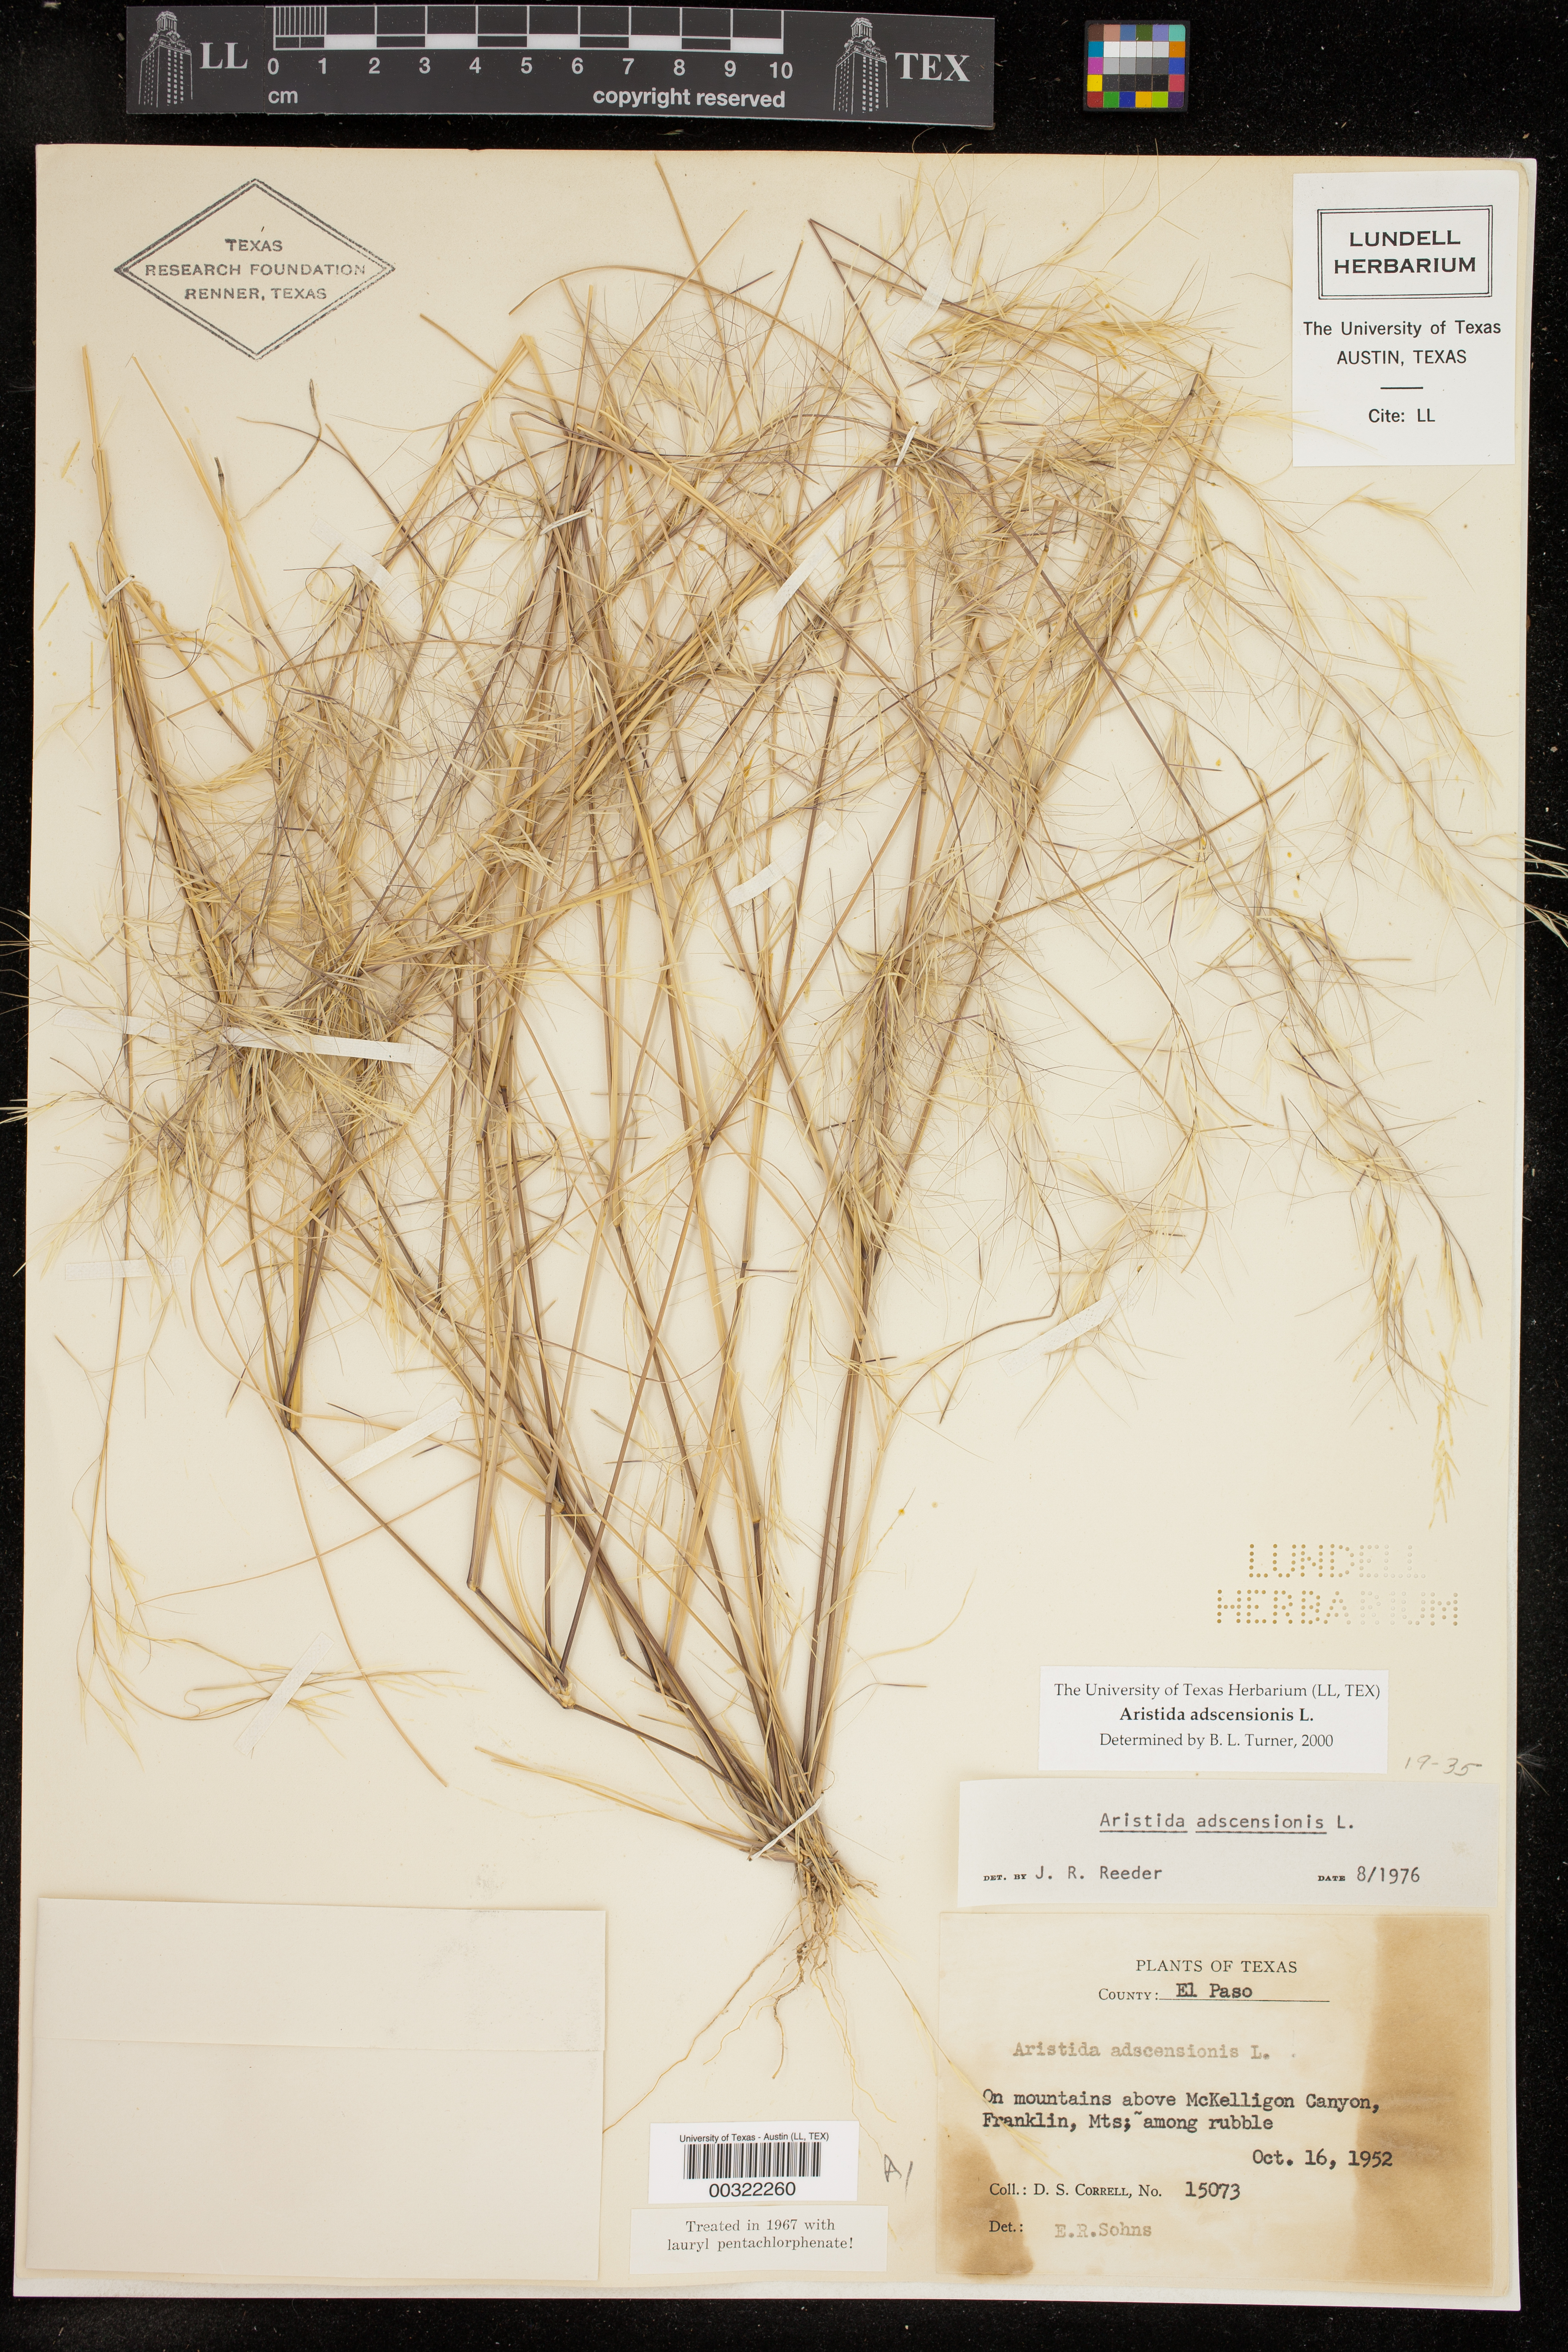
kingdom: Plantae
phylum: Tracheophyta
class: Liliopsida
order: Poales
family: Poaceae
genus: Aristida
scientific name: Aristida adscensionis
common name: Sixweeks threeawn
